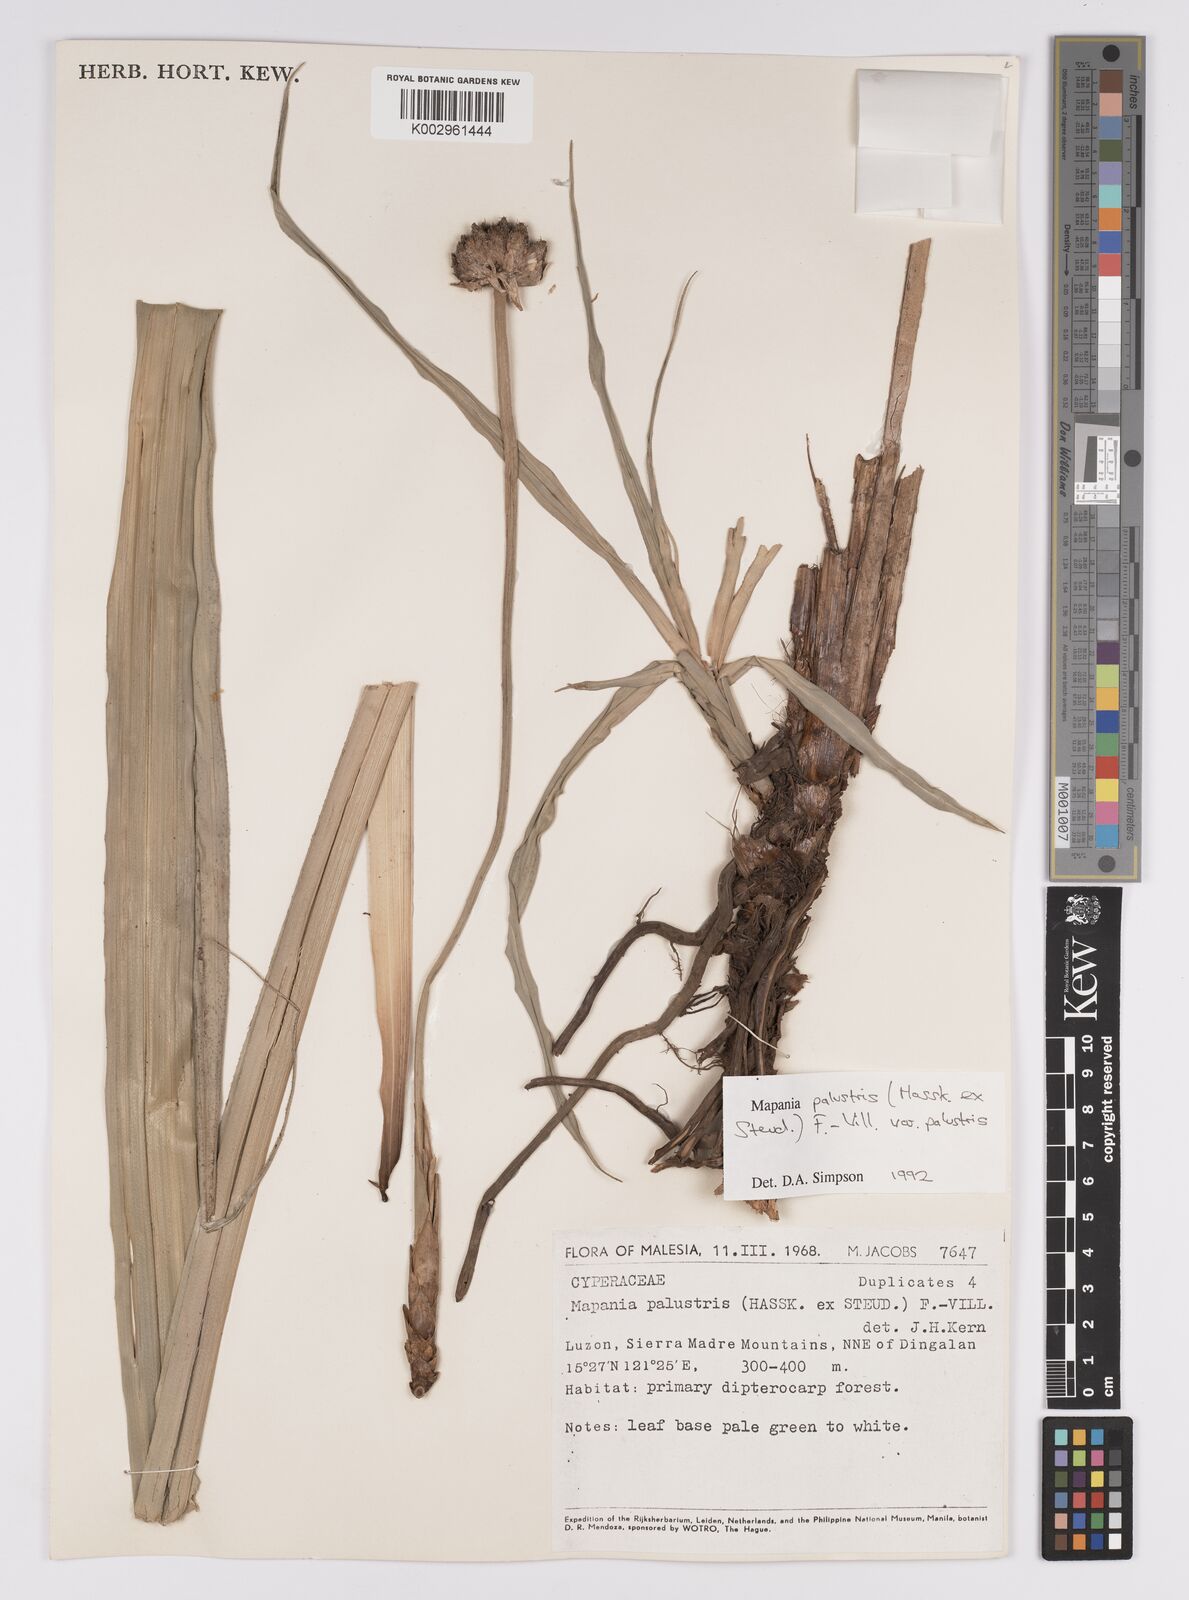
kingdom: Plantae
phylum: Tracheophyta
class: Liliopsida
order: Poales
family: Cyperaceae
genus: Mapania
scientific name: Mapania palustris
